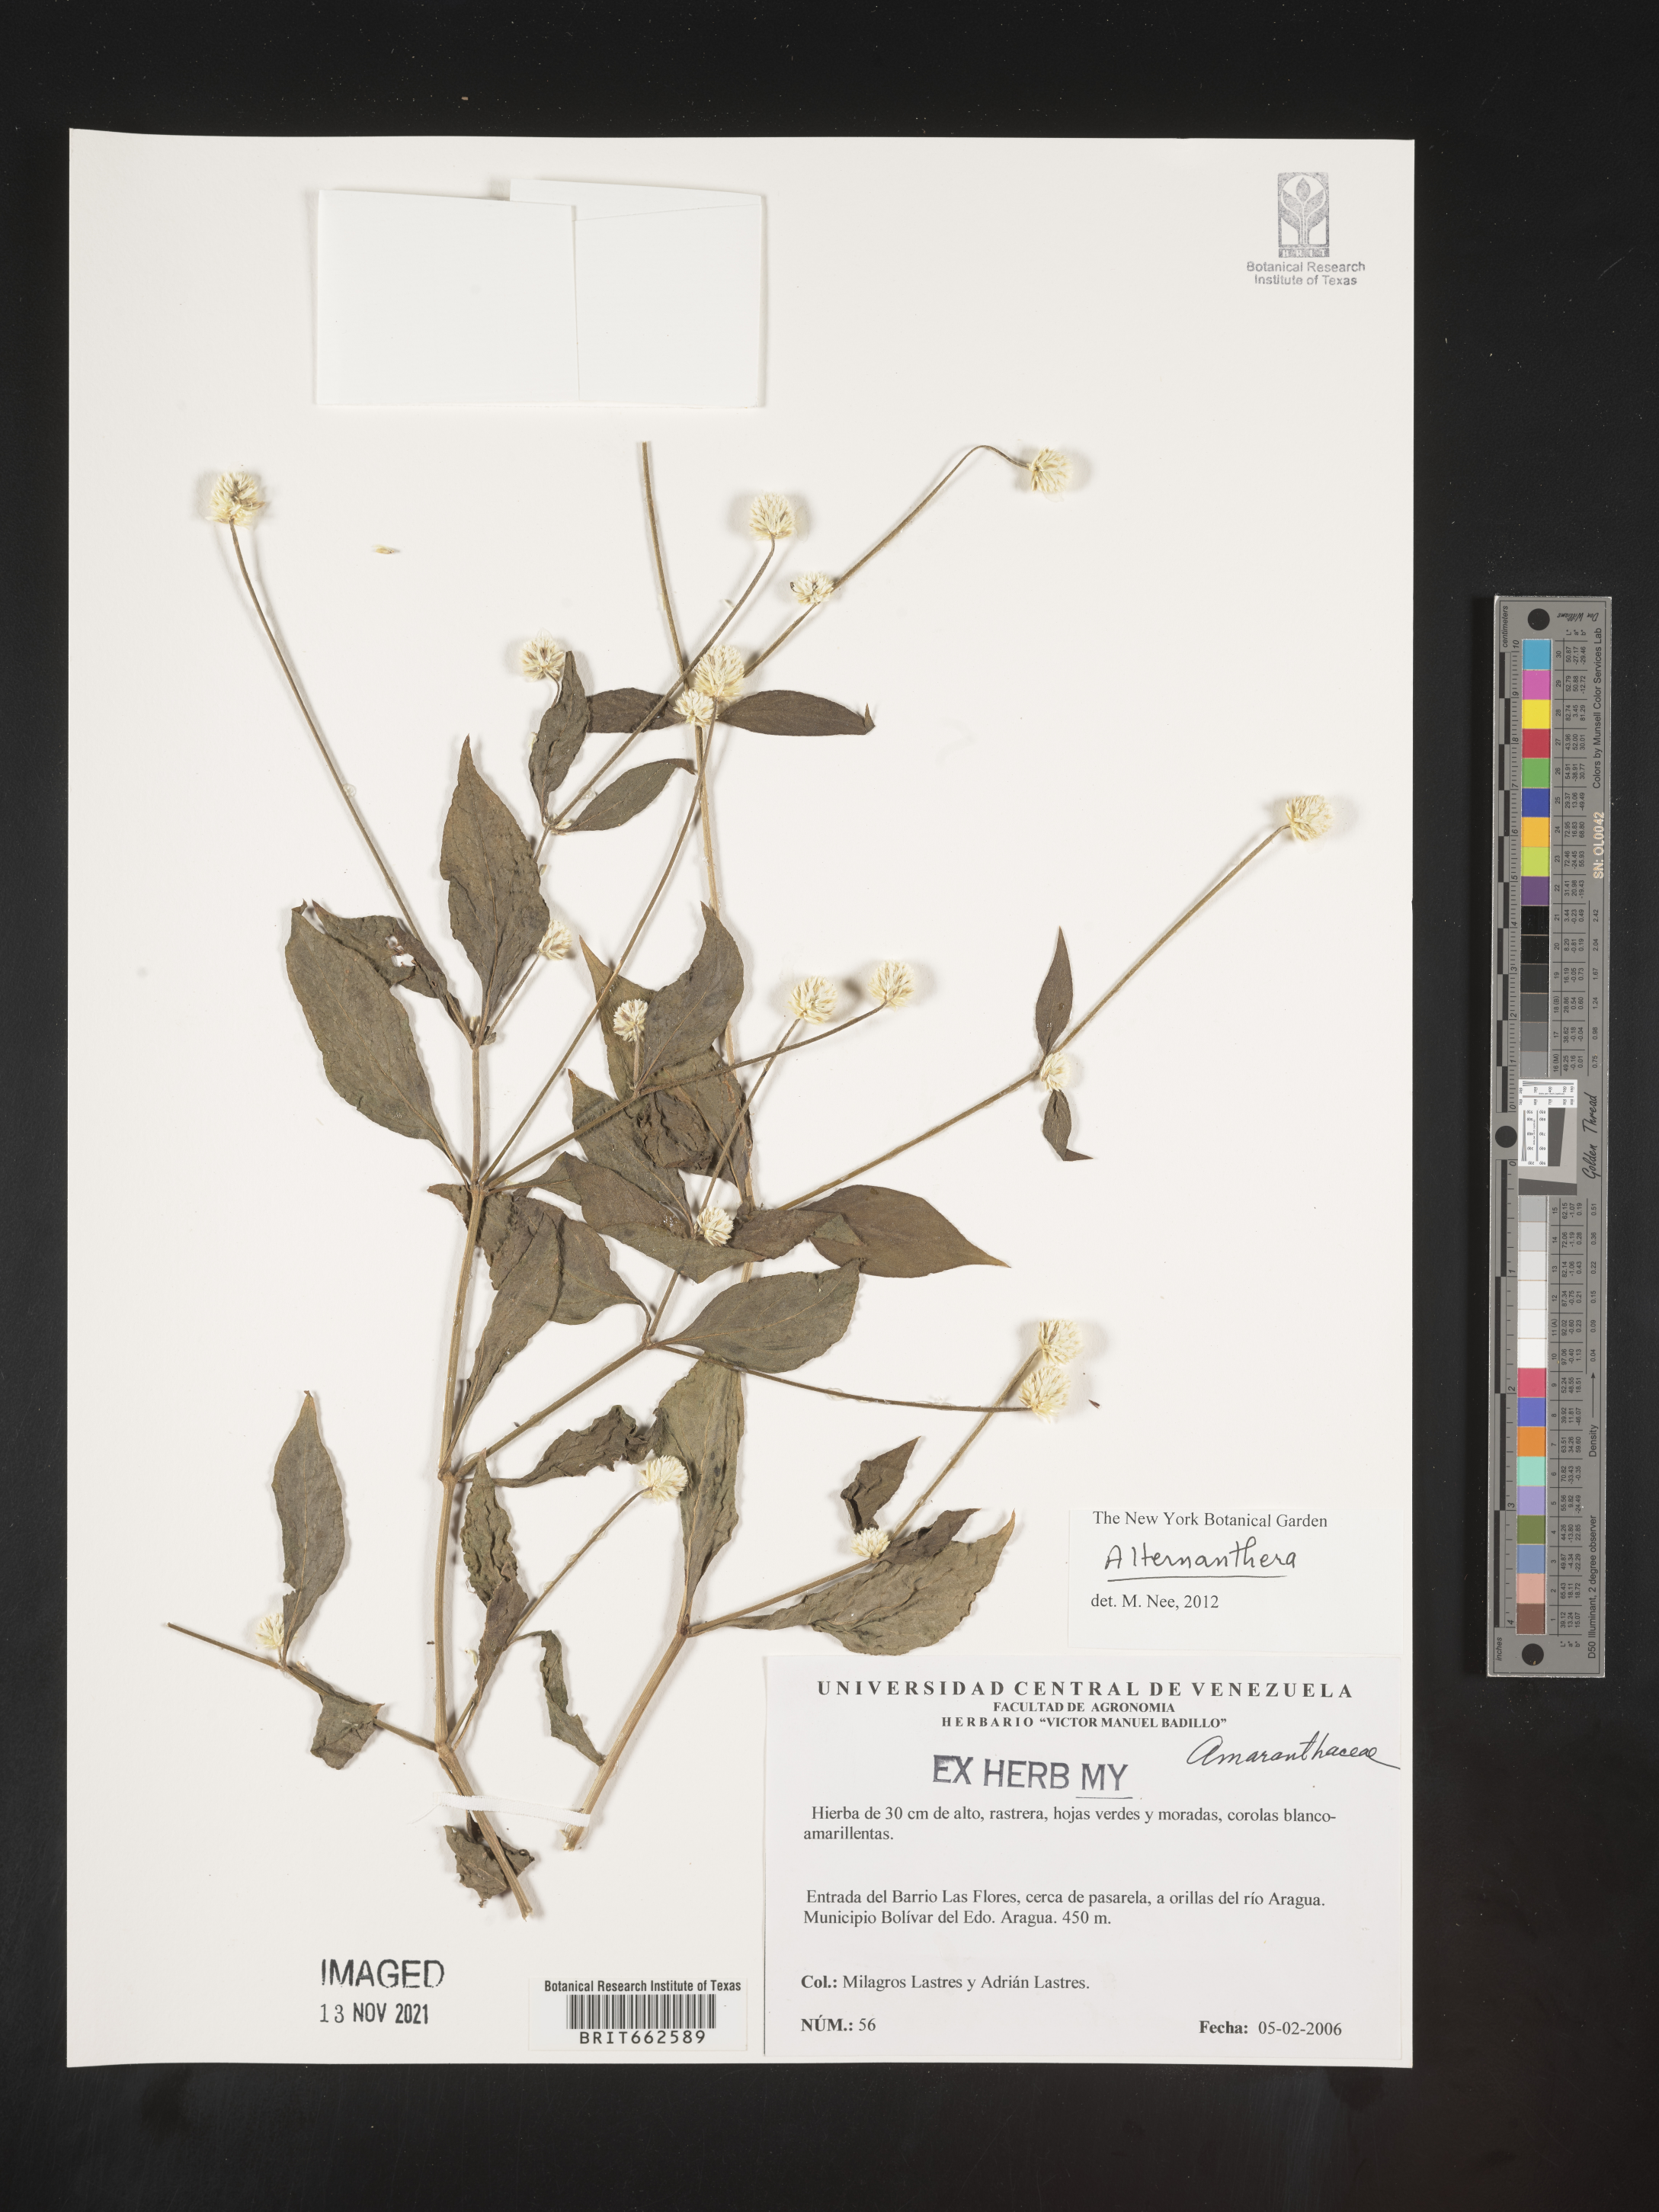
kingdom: Plantae
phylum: Tracheophyta
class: Magnoliopsida
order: Caryophyllales
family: Amaranthaceae
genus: Alternanthera
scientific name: Alternanthera
